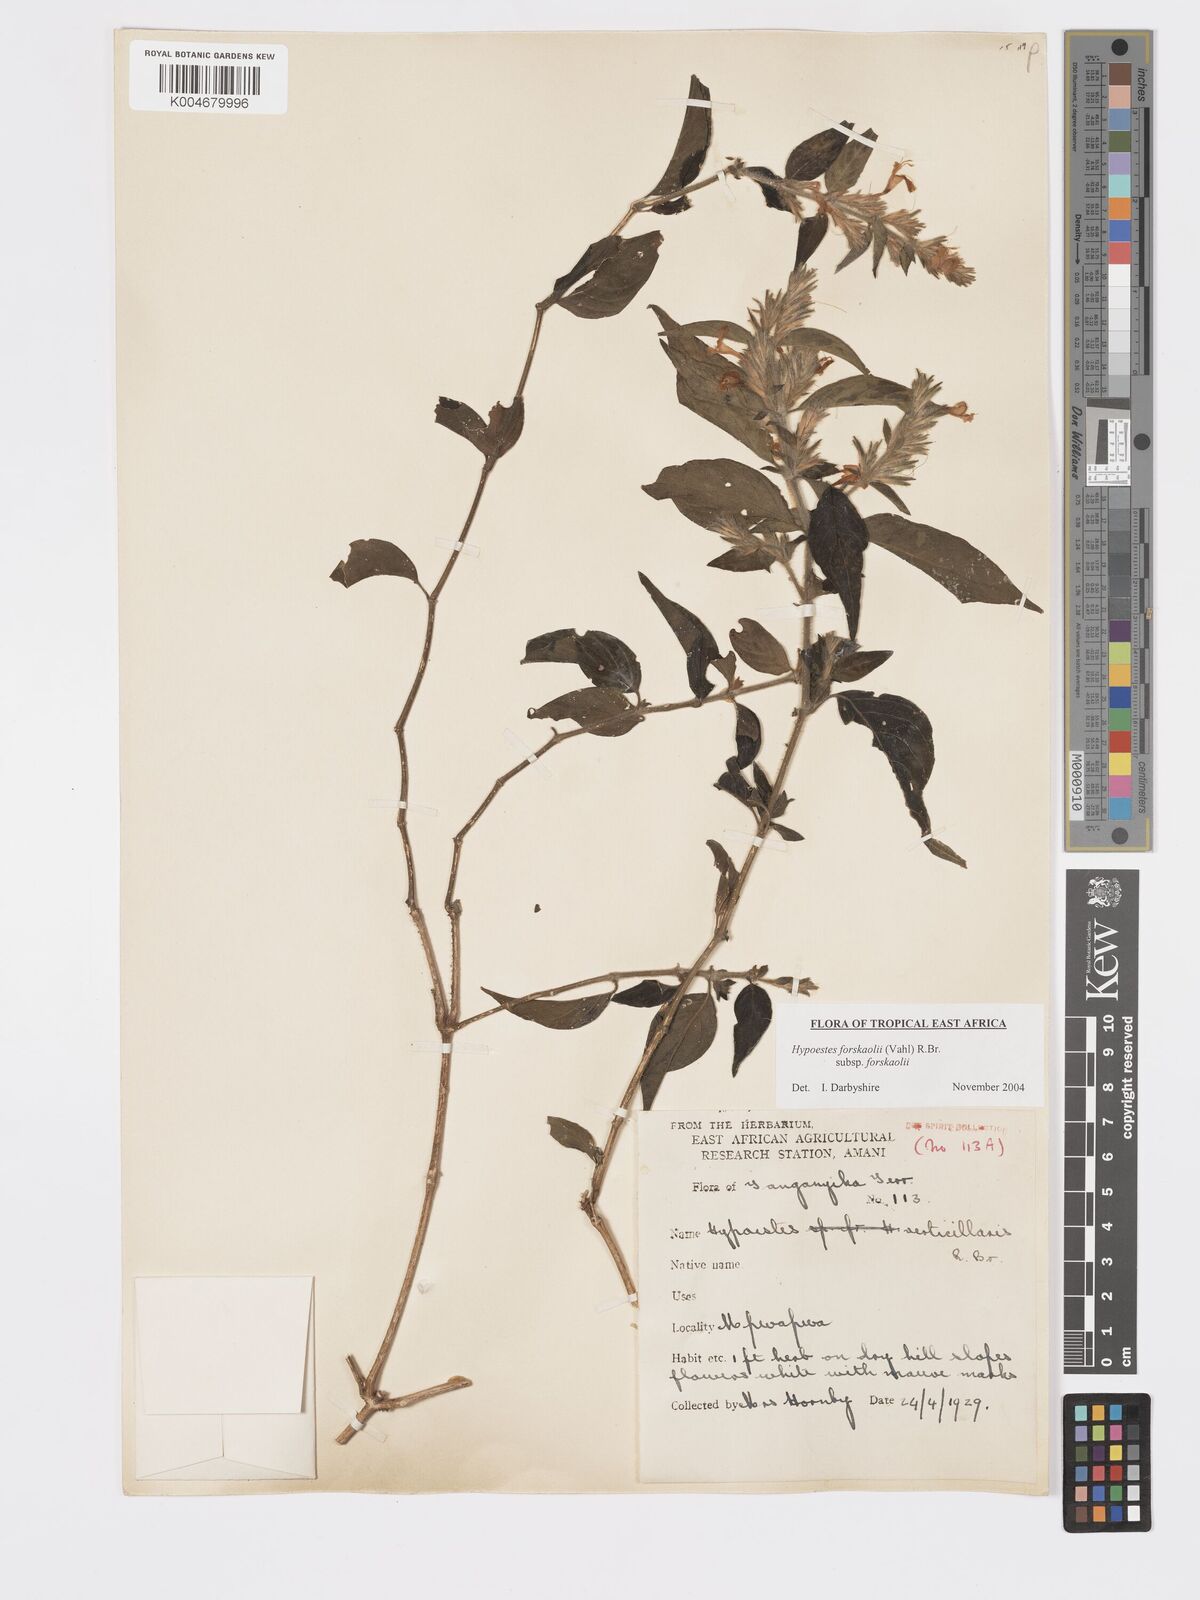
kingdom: Plantae
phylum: Tracheophyta
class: Magnoliopsida
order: Lamiales
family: Acanthaceae
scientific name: Acanthaceae
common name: Acanthaceae
